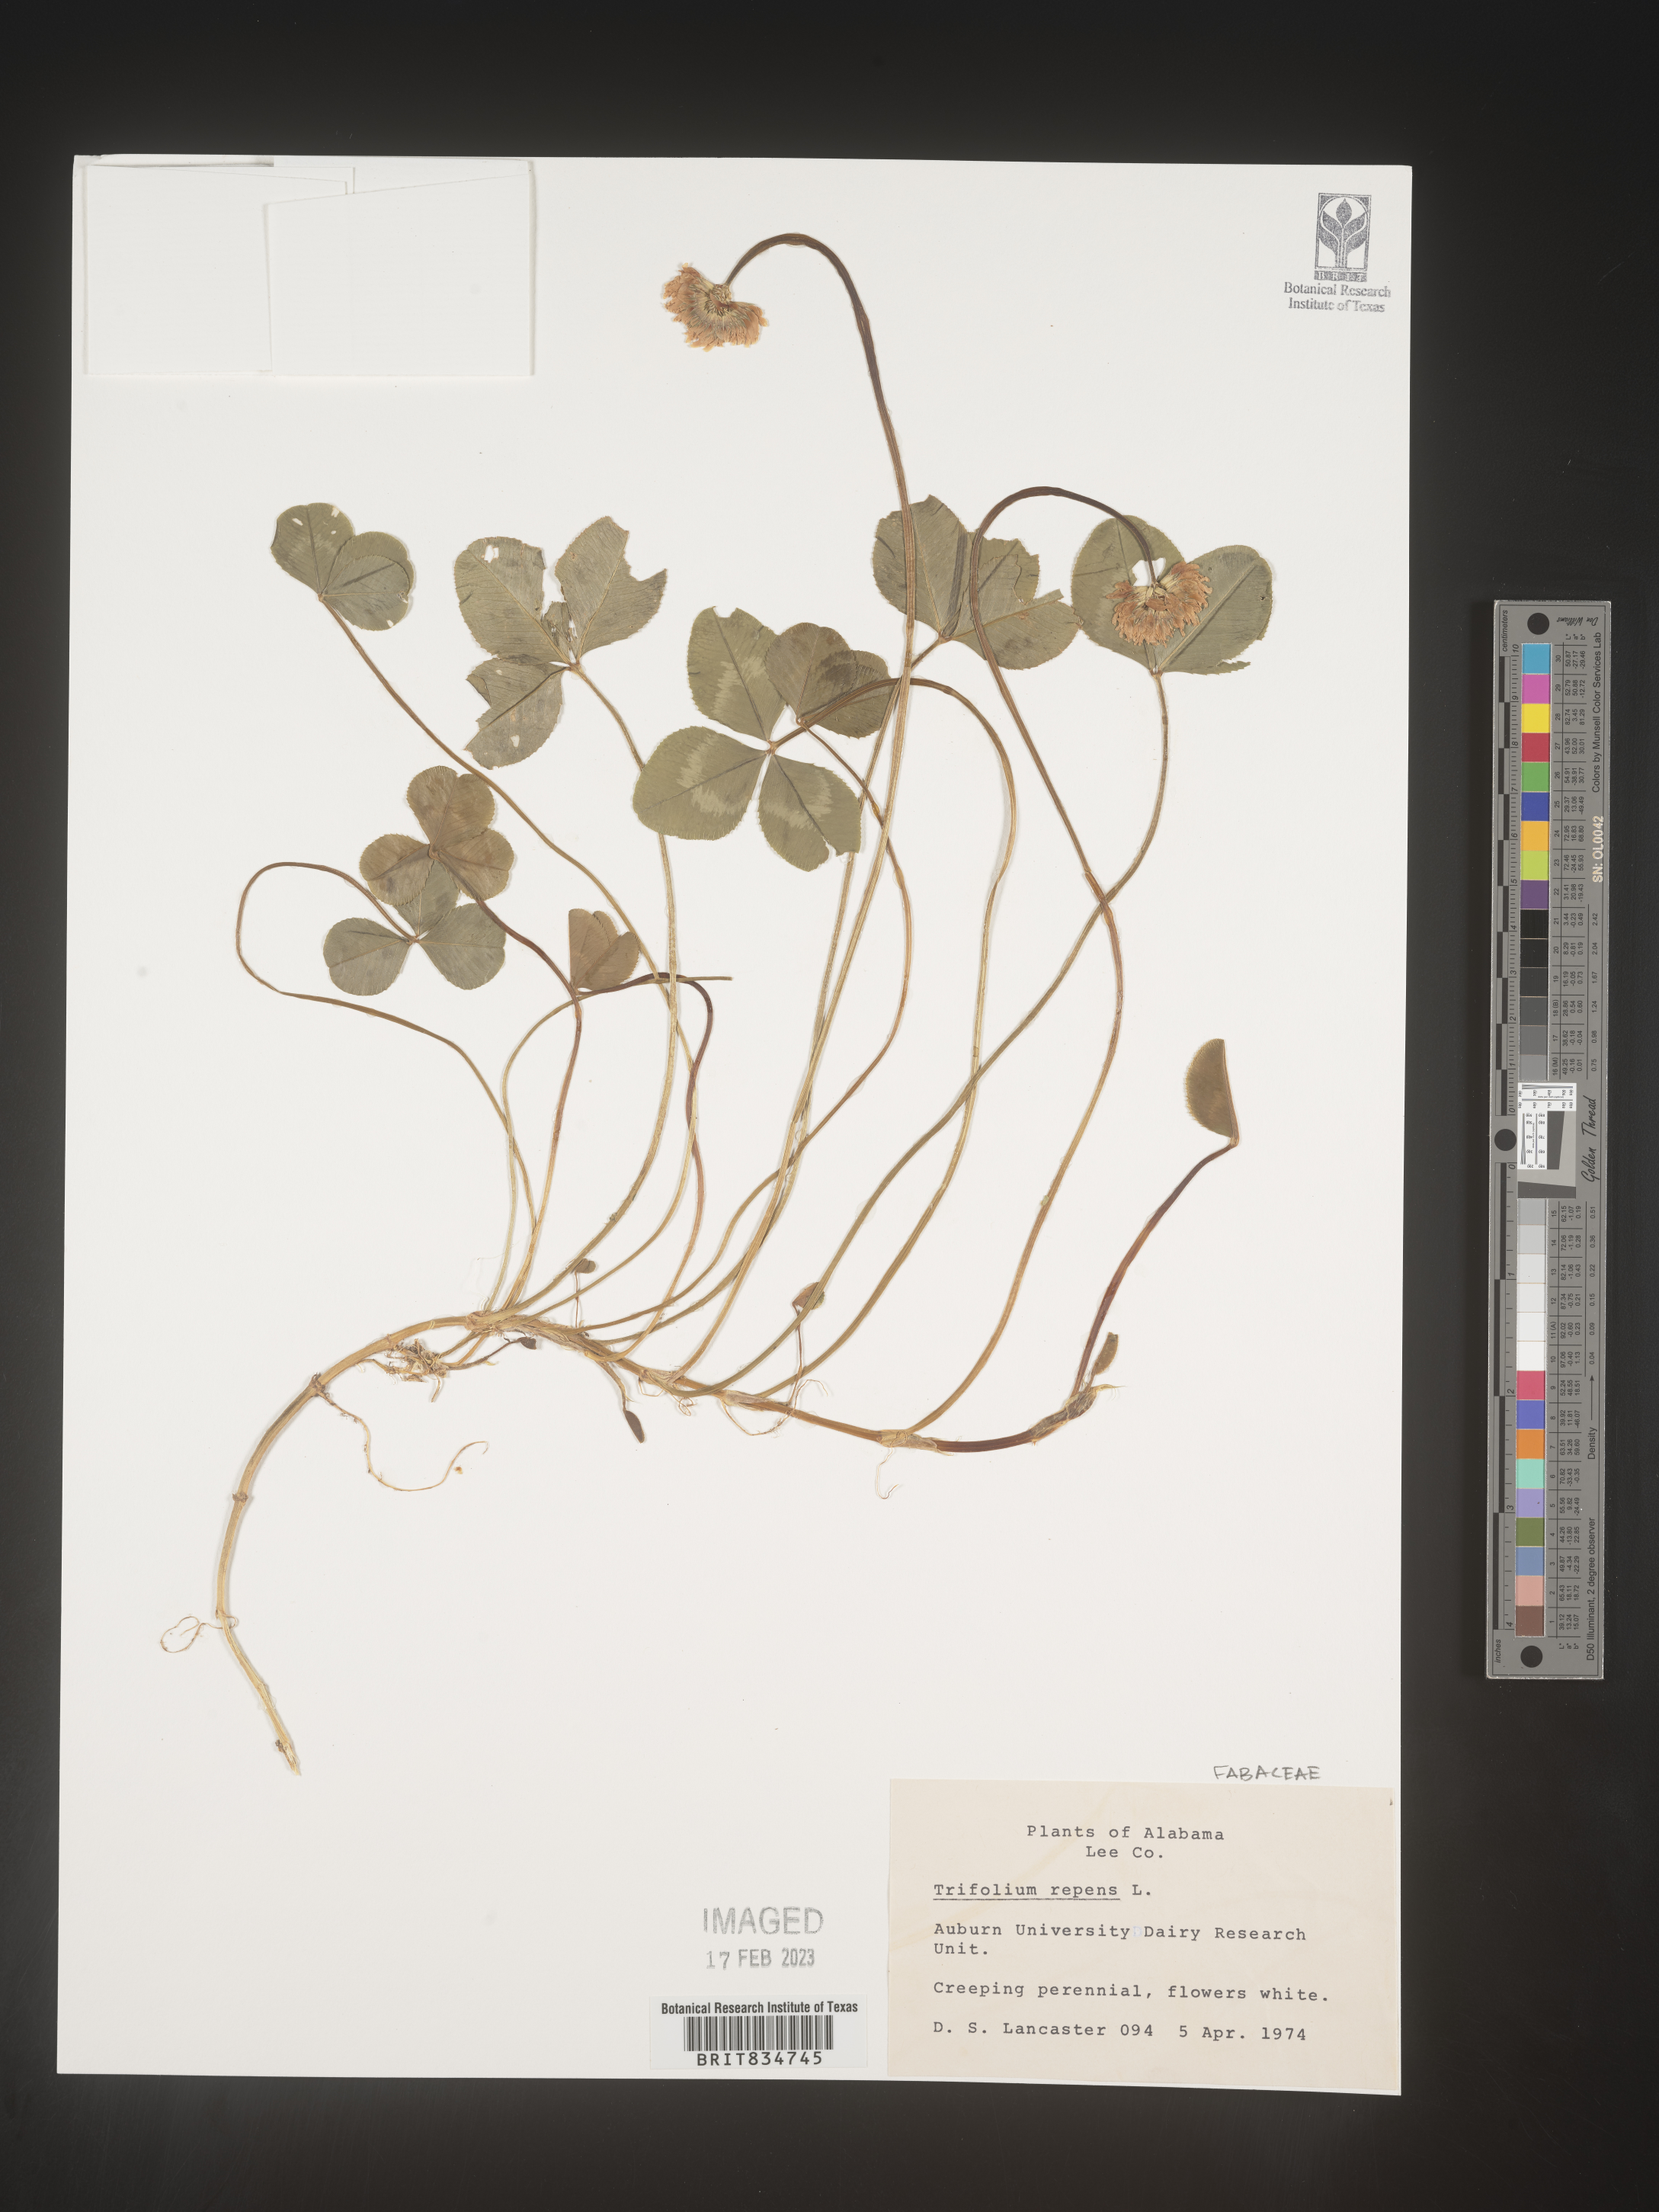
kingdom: Plantae
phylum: Tracheophyta
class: Magnoliopsida
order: Fabales
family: Fabaceae
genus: Trifolium
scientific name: Trifolium repens
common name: White clover
